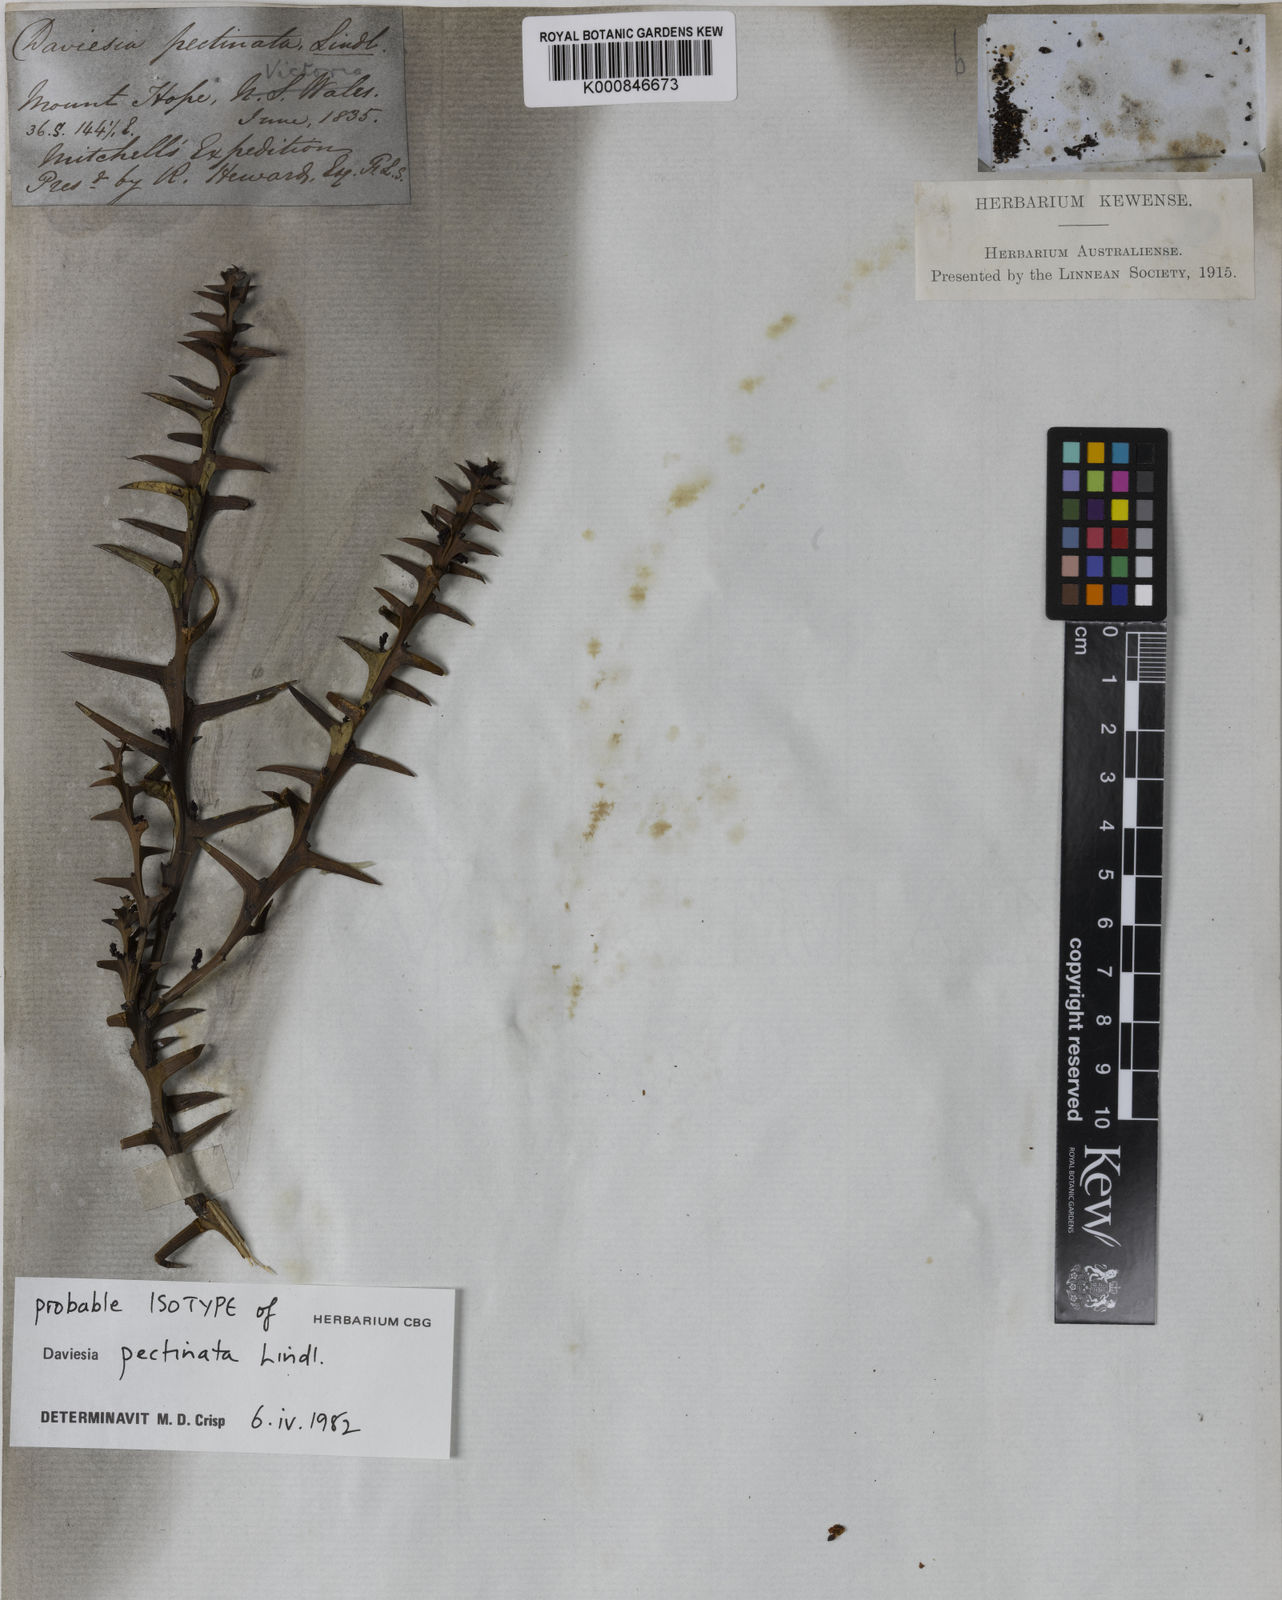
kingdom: Plantae
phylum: Tracheophyta
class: Magnoliopsida
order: Fabales
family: Fabaceae
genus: Daviesia
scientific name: Daviesia pectinata
